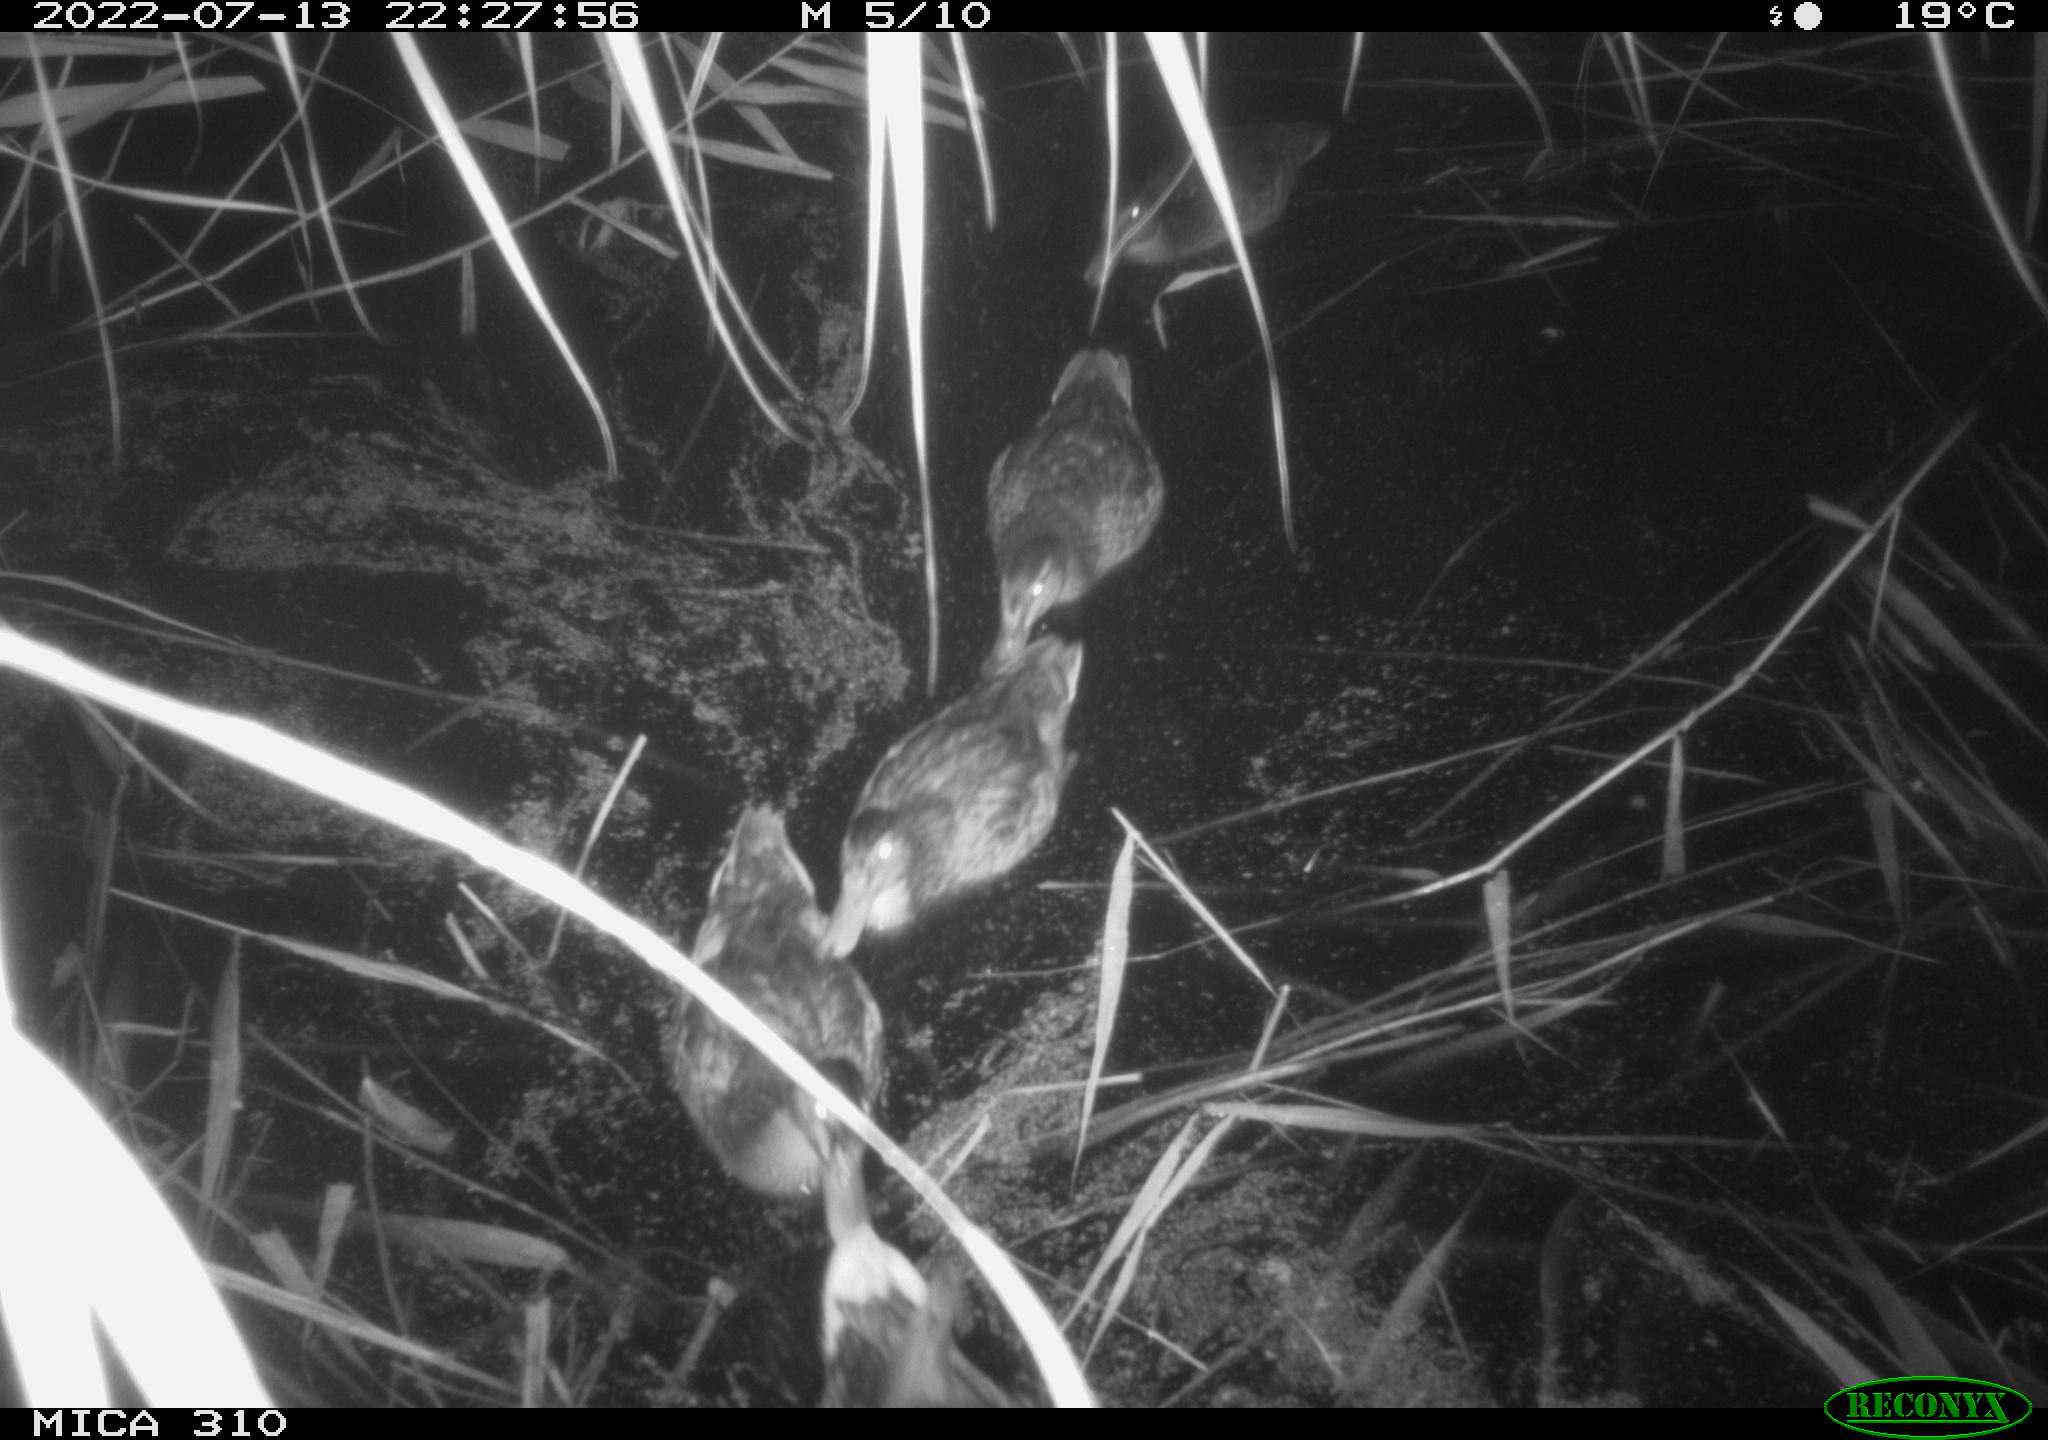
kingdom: Animalia
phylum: Chordata
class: Aves
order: Anseriformes
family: Anatidae
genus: Anas
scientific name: Anas platyrhynchos
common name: Mallard
